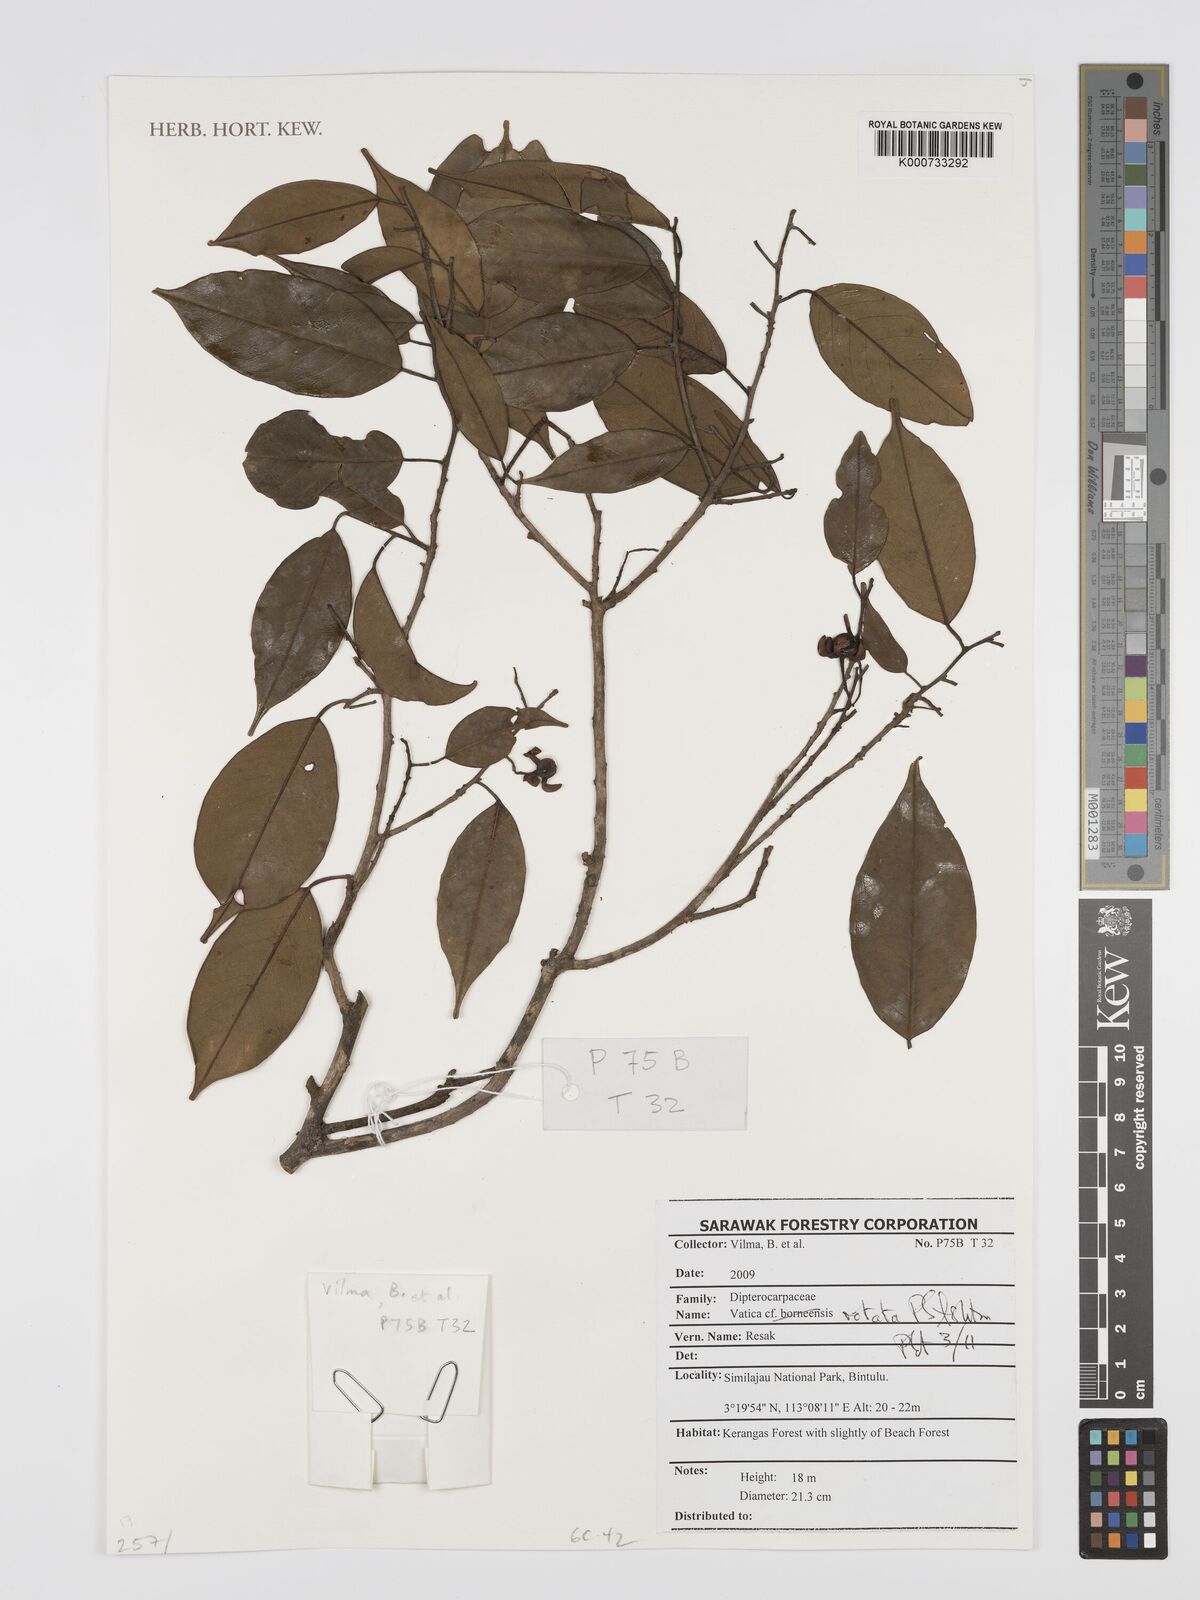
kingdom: Plantae
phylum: Tracheophyta
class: Magnoliopsida
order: Malvales
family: Dipterocarpaceae
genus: Vatica
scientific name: Vatica rotata
